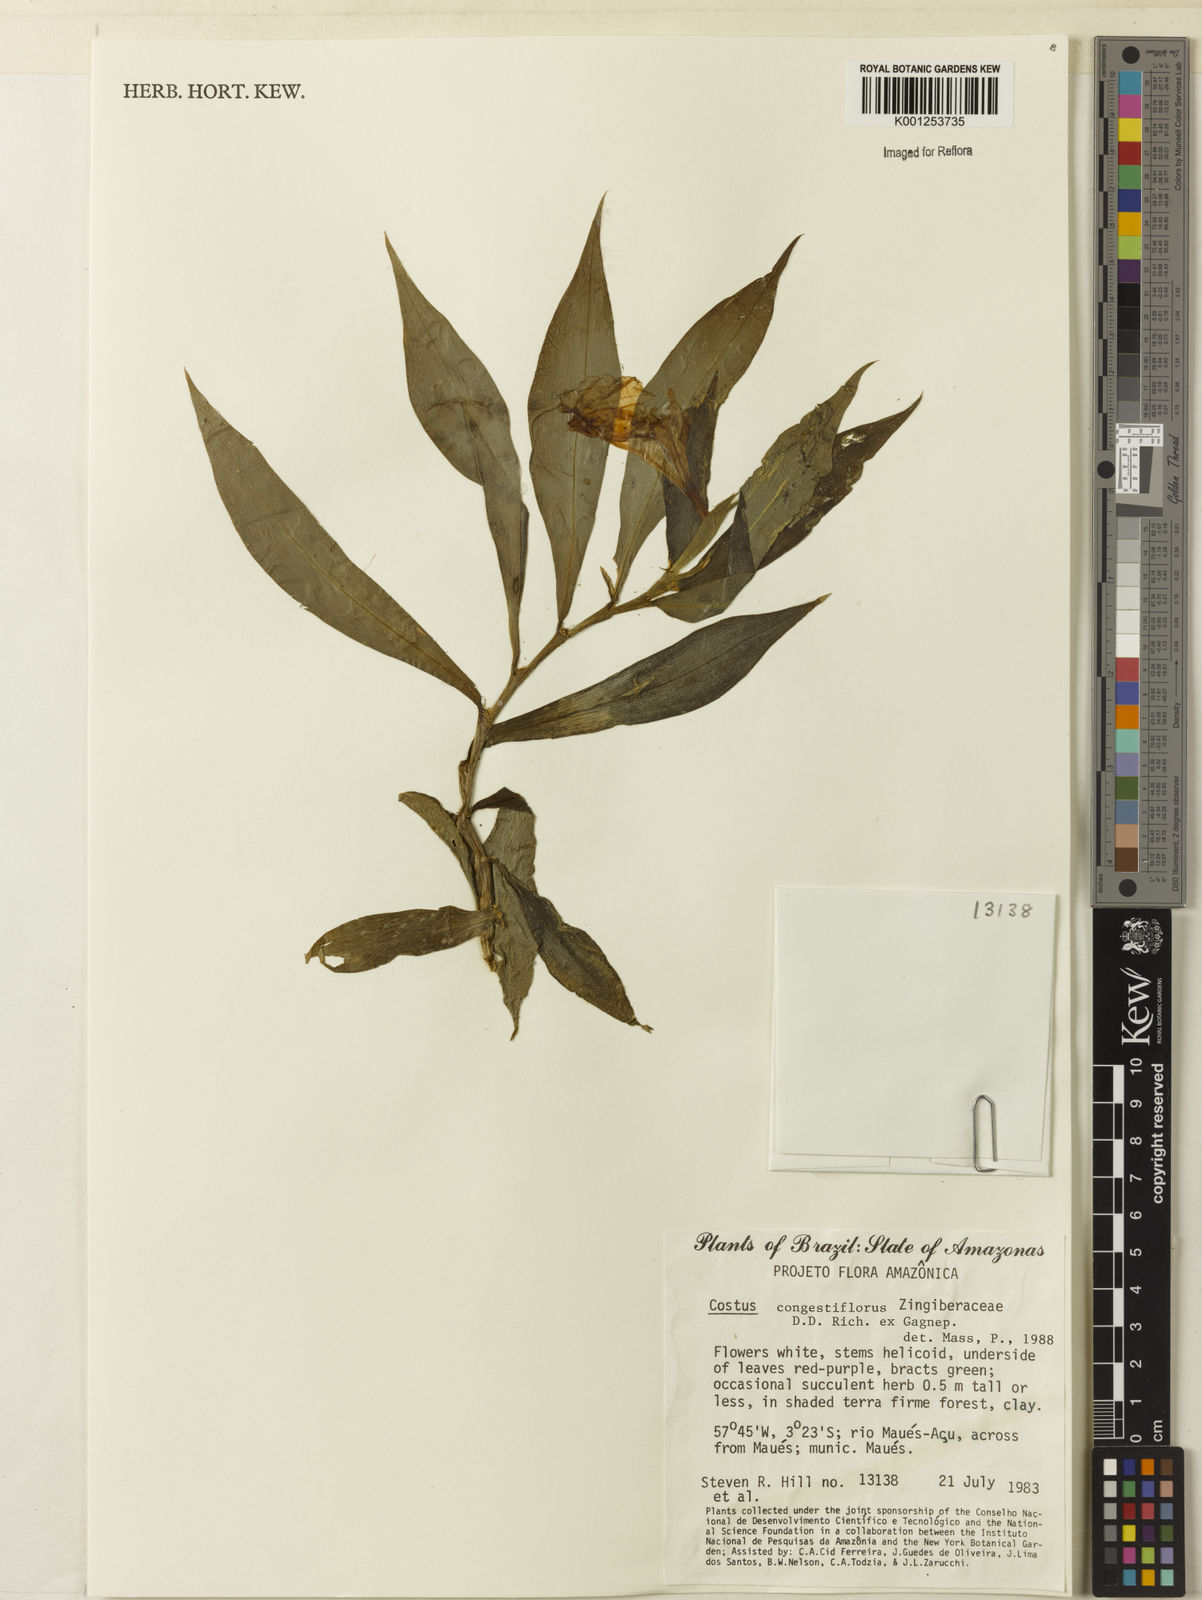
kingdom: Plantae
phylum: Tracheophyta
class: Liliopsida
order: Zingiberales
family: Costaceae
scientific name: Costaceae
